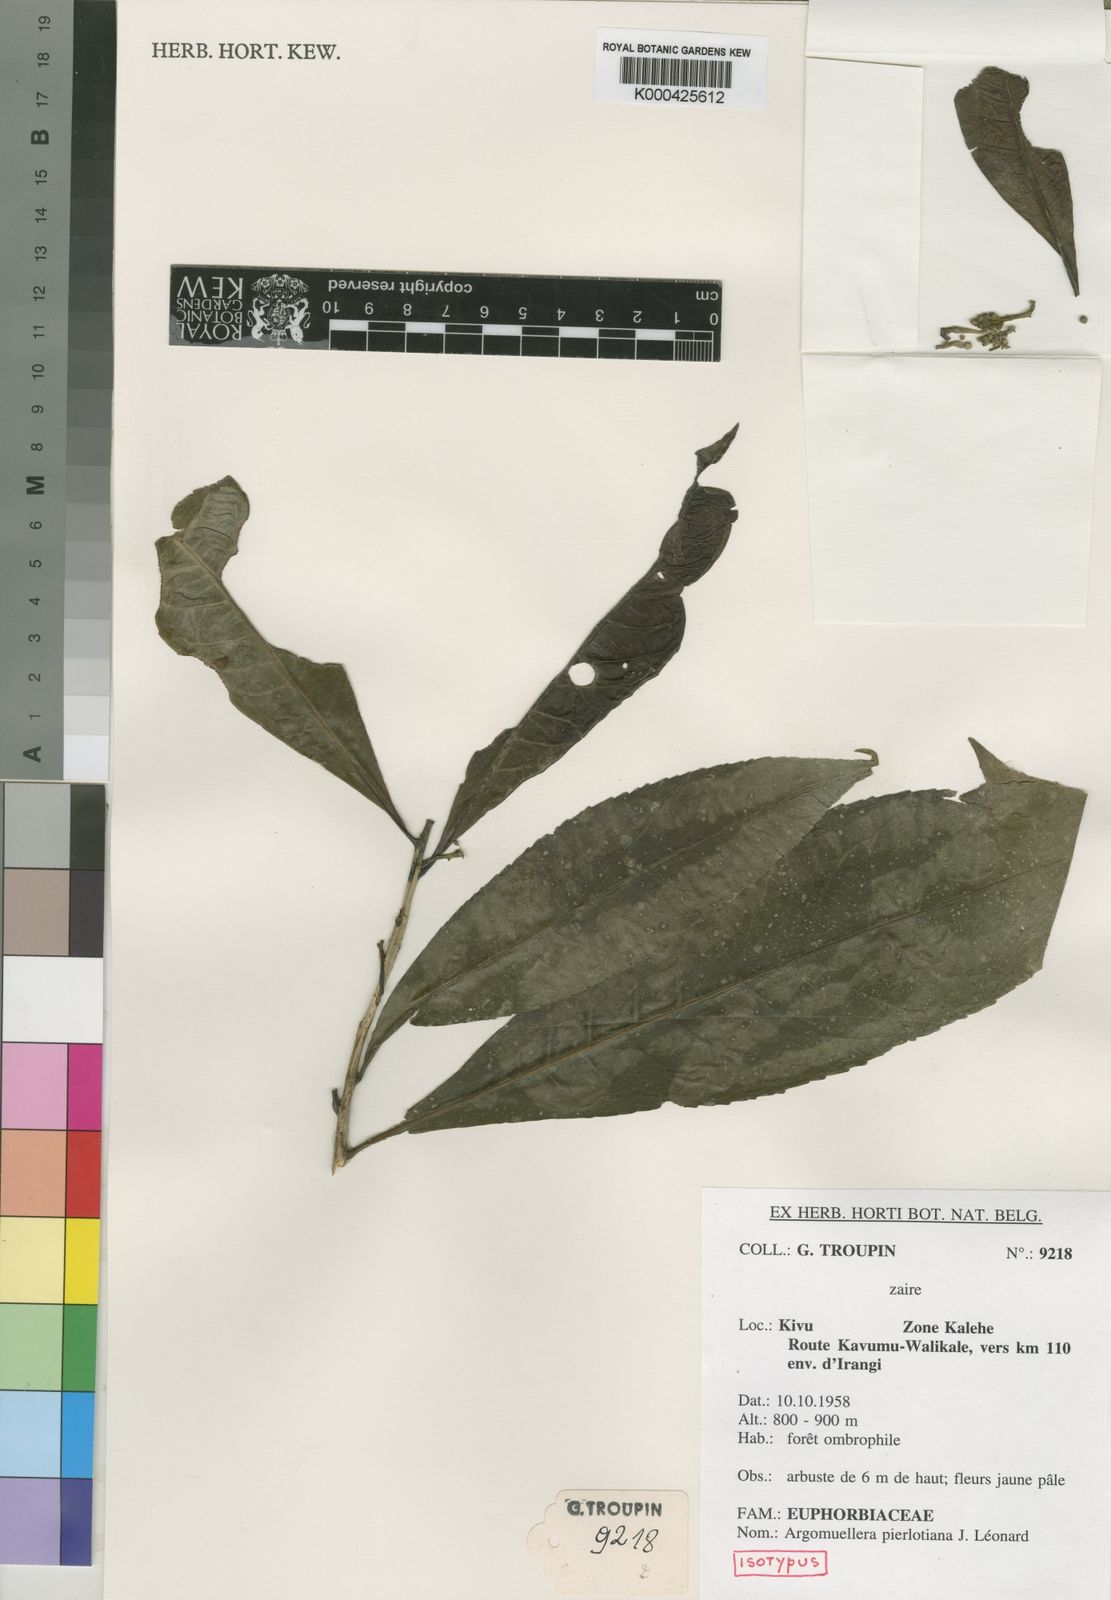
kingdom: Plantae
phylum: Tracheophyta
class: Magnoliopsida
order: Malpighiales
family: Euphorbiaceae
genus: Argomuellera
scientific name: Argomuellera
